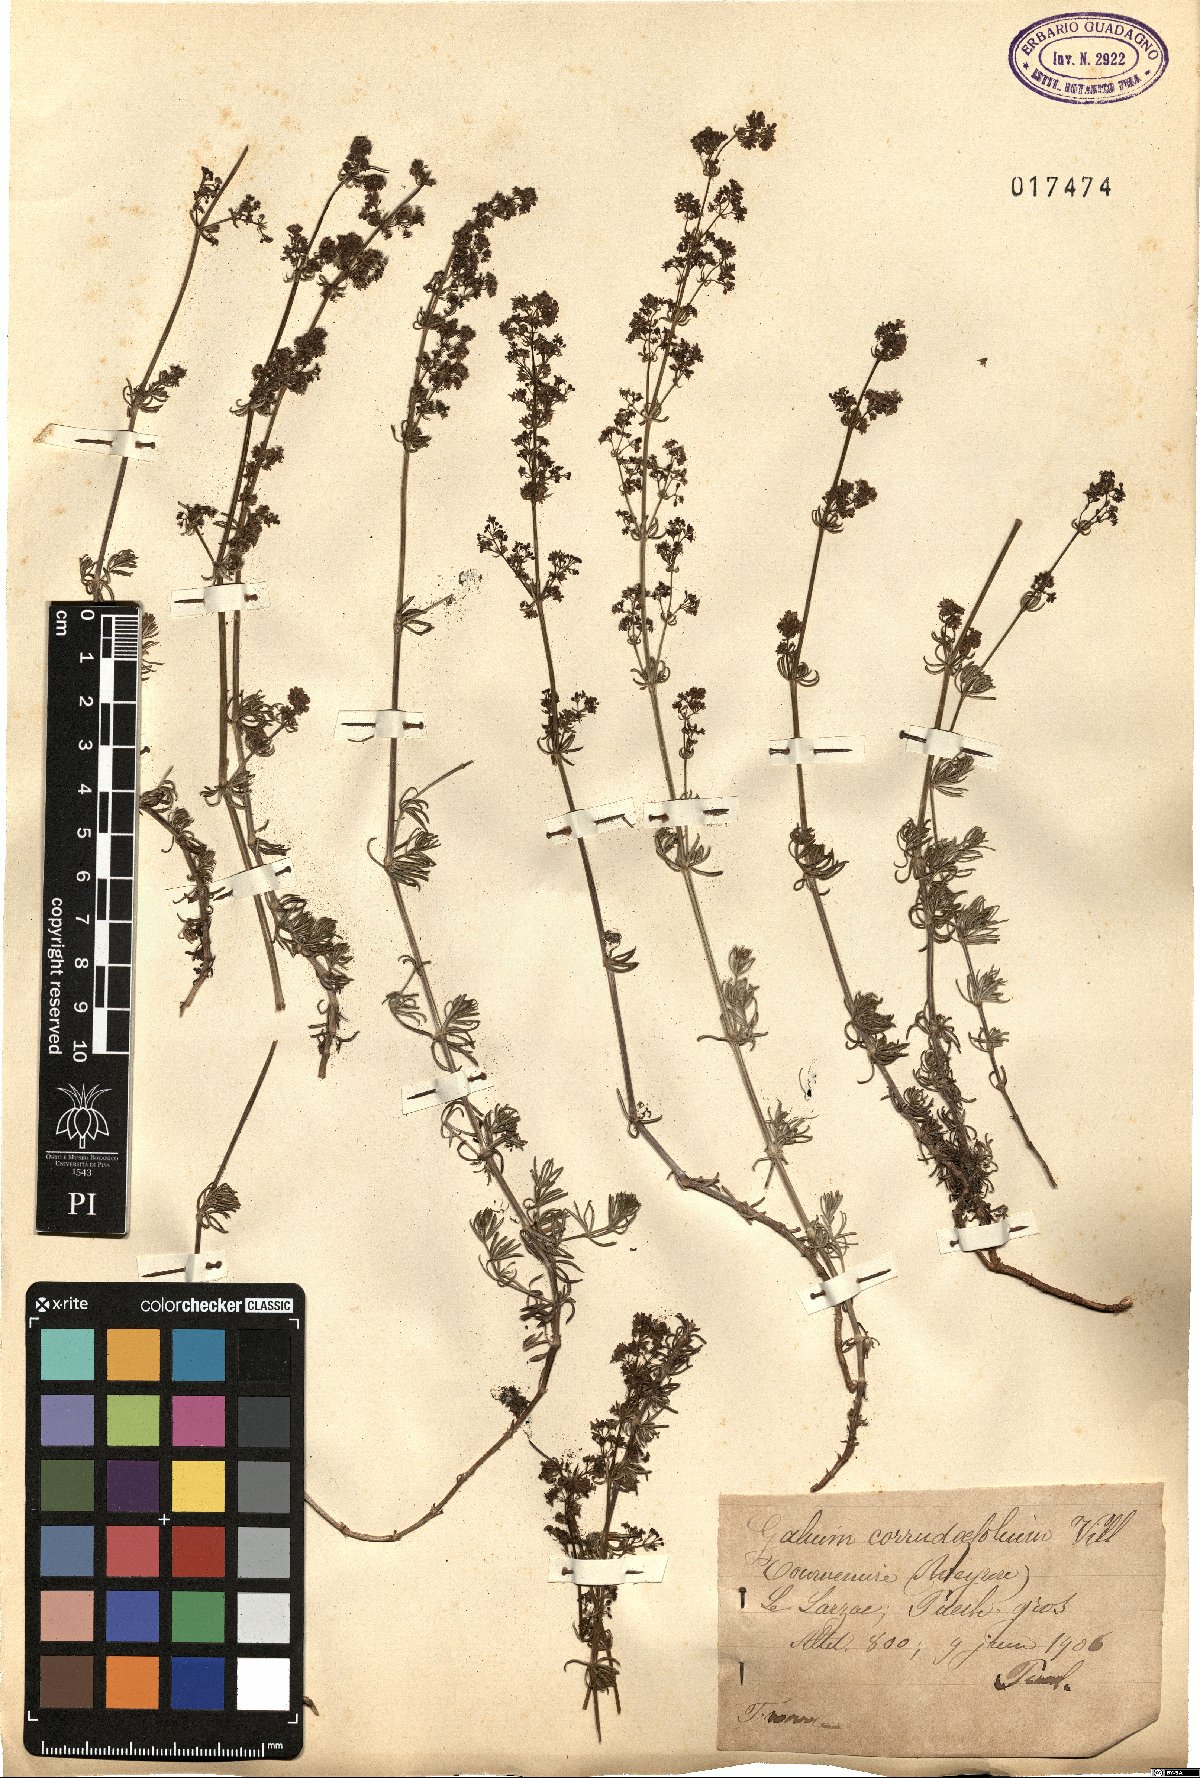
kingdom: Plantae
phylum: Tracheophyta
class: Magnoliopsida
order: Gentianales
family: Rubiaceae
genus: Galium
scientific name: Galium lucidum
